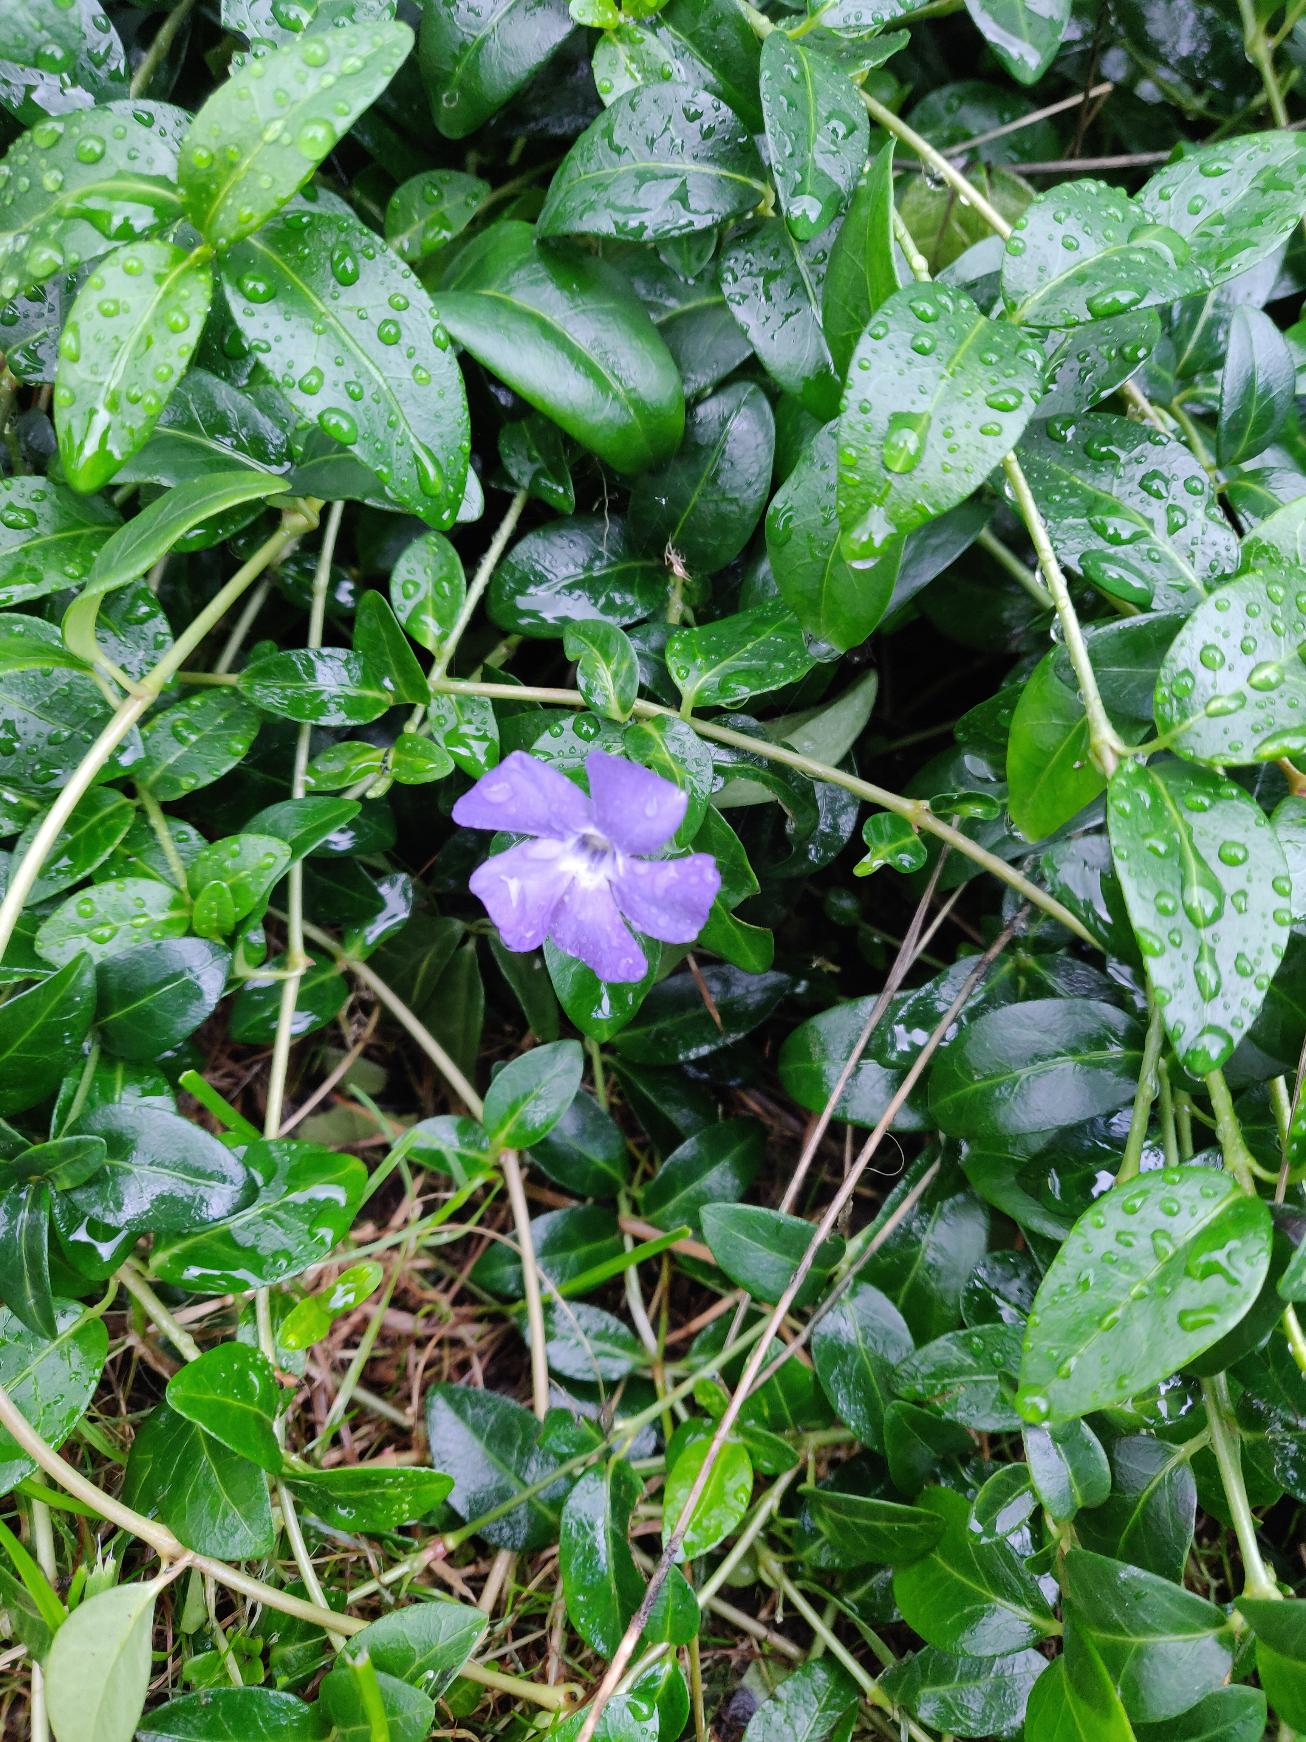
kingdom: Plantae
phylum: Tracheophyta
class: Magnoliopsida
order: Gentianales
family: Apocynaceae
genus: Vinca
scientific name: Vinca minor
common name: Liden singrøn
